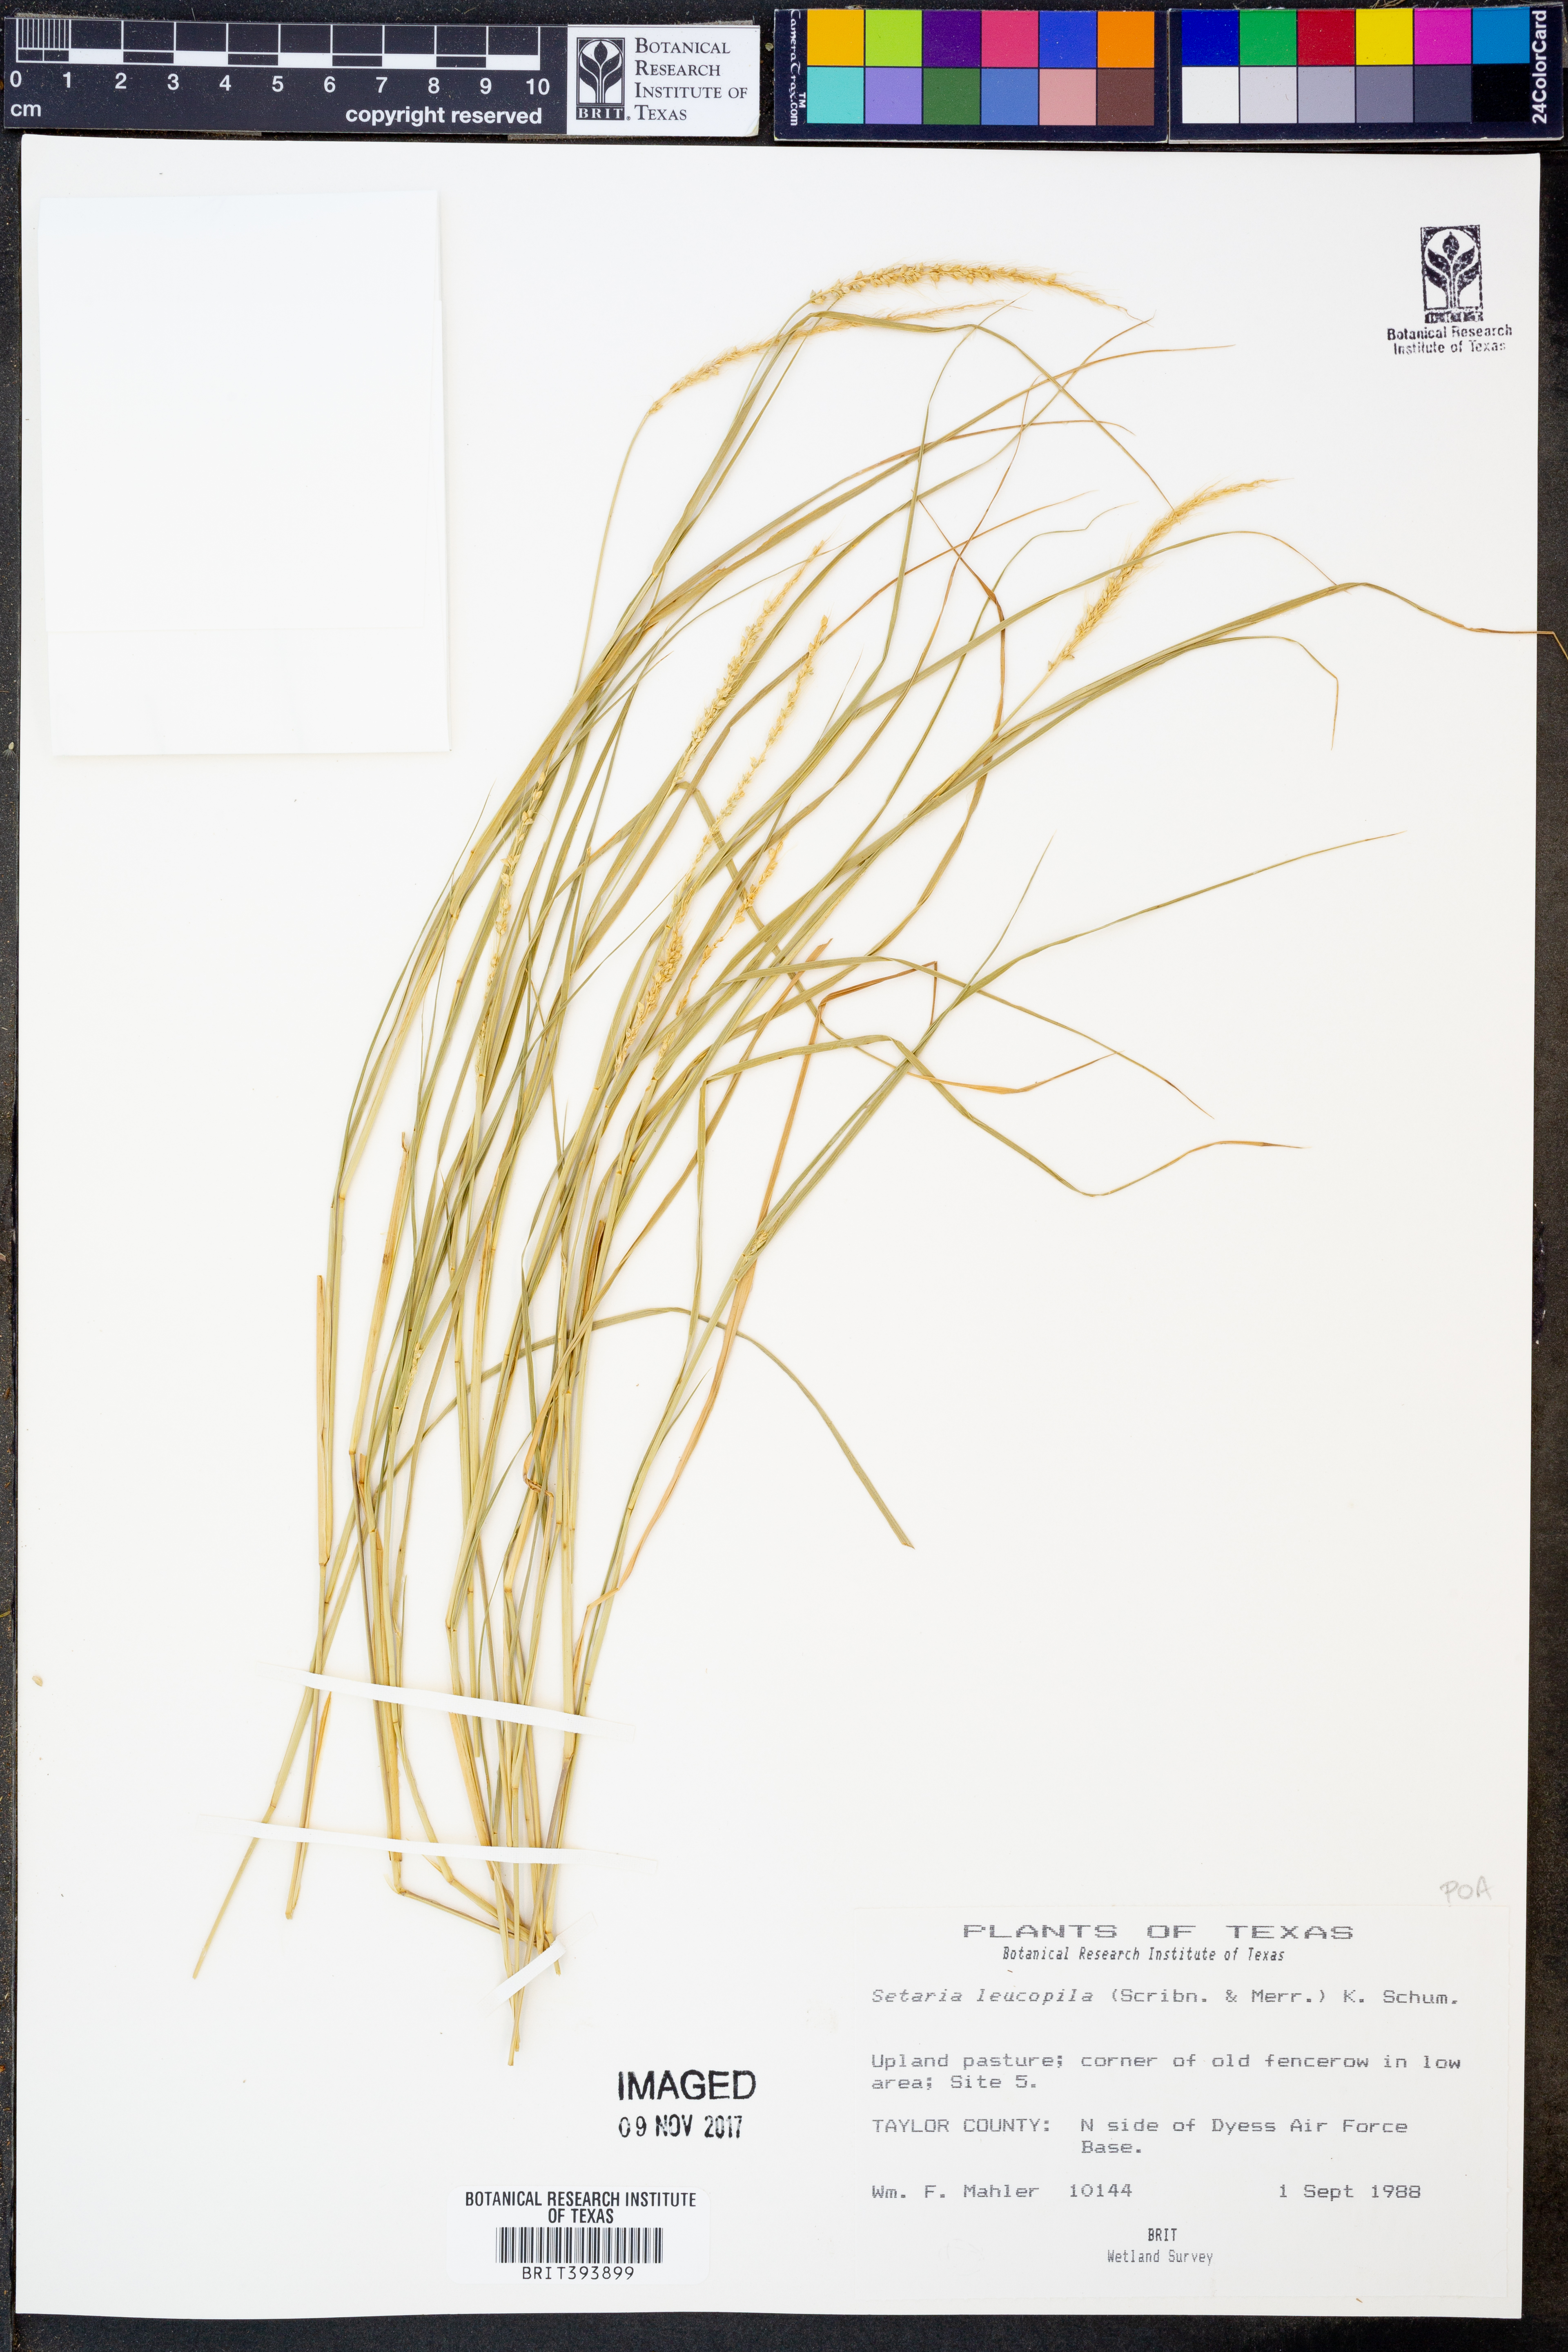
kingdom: Plantae
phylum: Tracheophyta
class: Liliopsida
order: Poales
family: Poaceae
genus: Setaria
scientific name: Setaria leucopila
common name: Plains bristle grass
